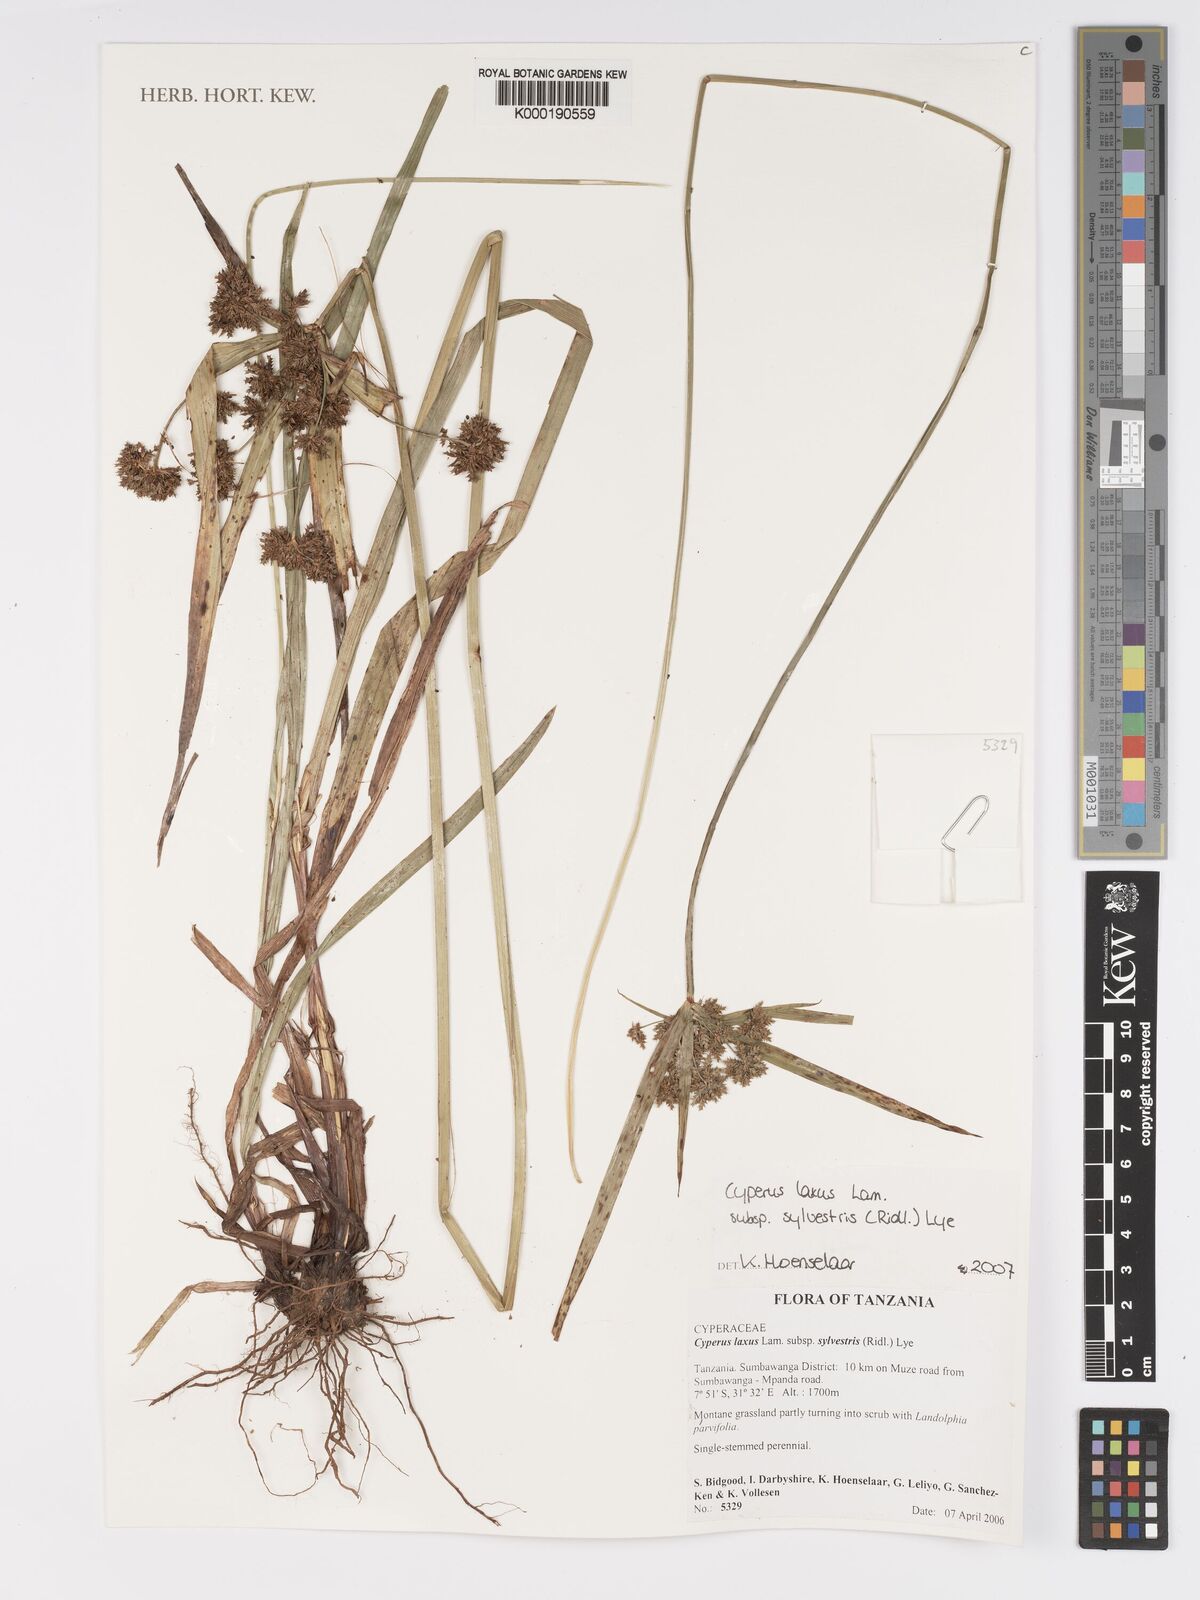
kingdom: Plantae
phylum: Tracheophyta
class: Liliopsida
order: Poales
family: Cyperaceae
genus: Cyperus
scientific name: Cyperus sylvestris
